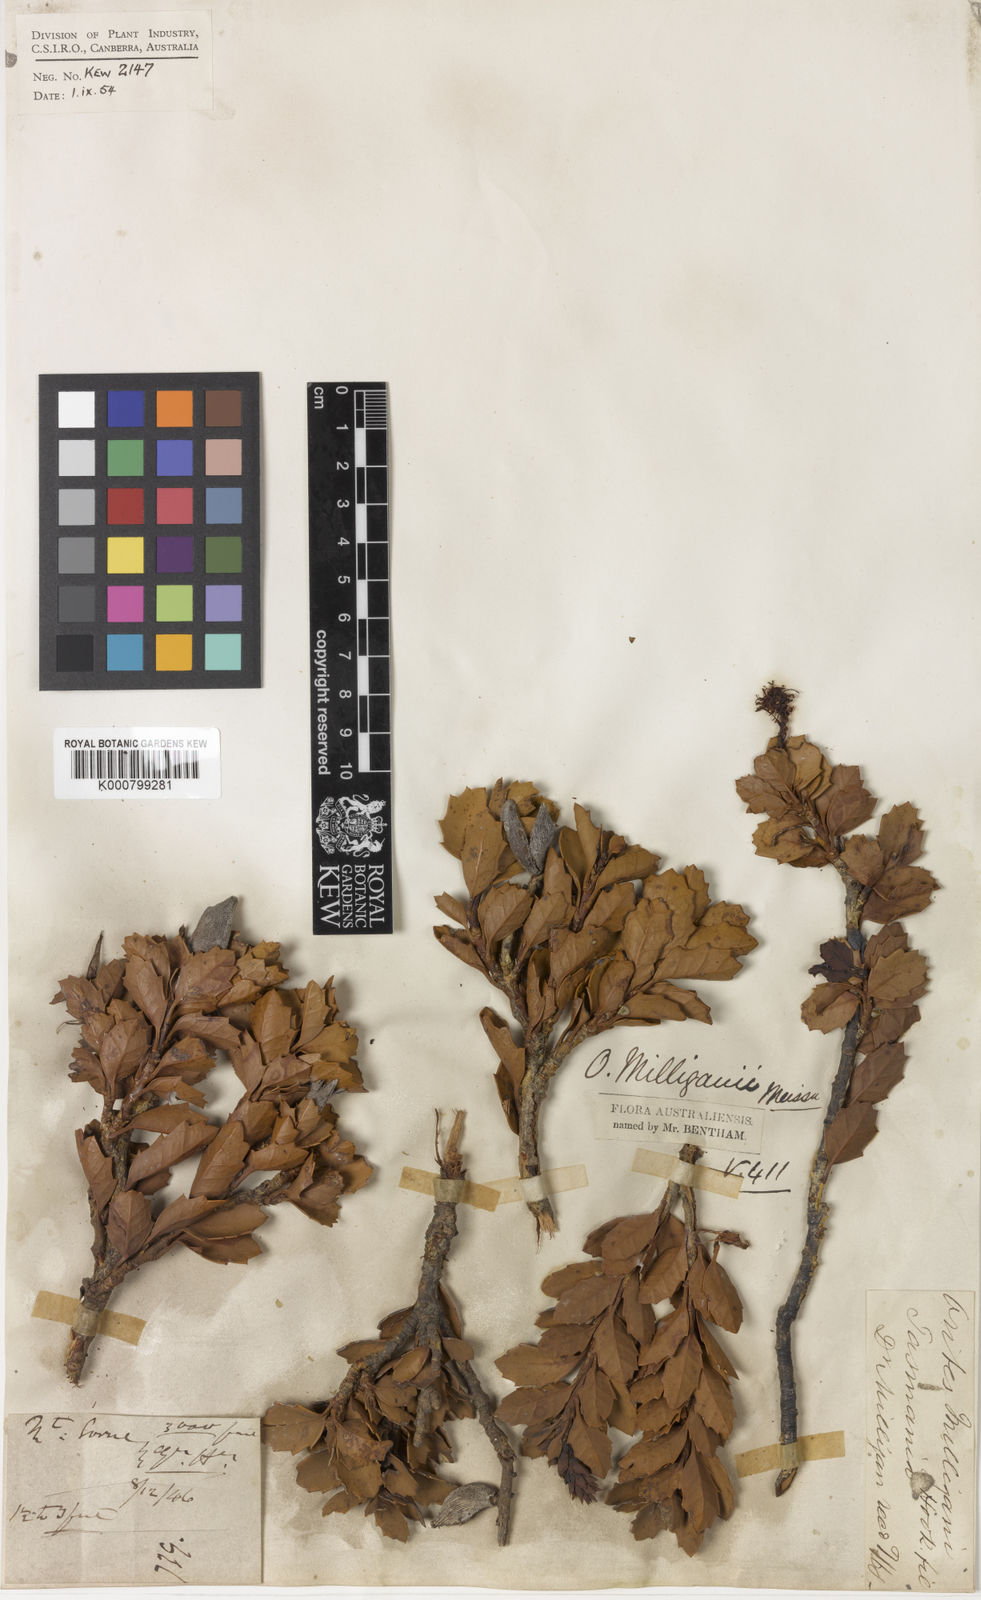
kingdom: Plantae
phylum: Tracheophyta
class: Magnoliopsida
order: Proteales
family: Proteaceae
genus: Orites
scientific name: Orites milliganii
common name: Toothed orites
